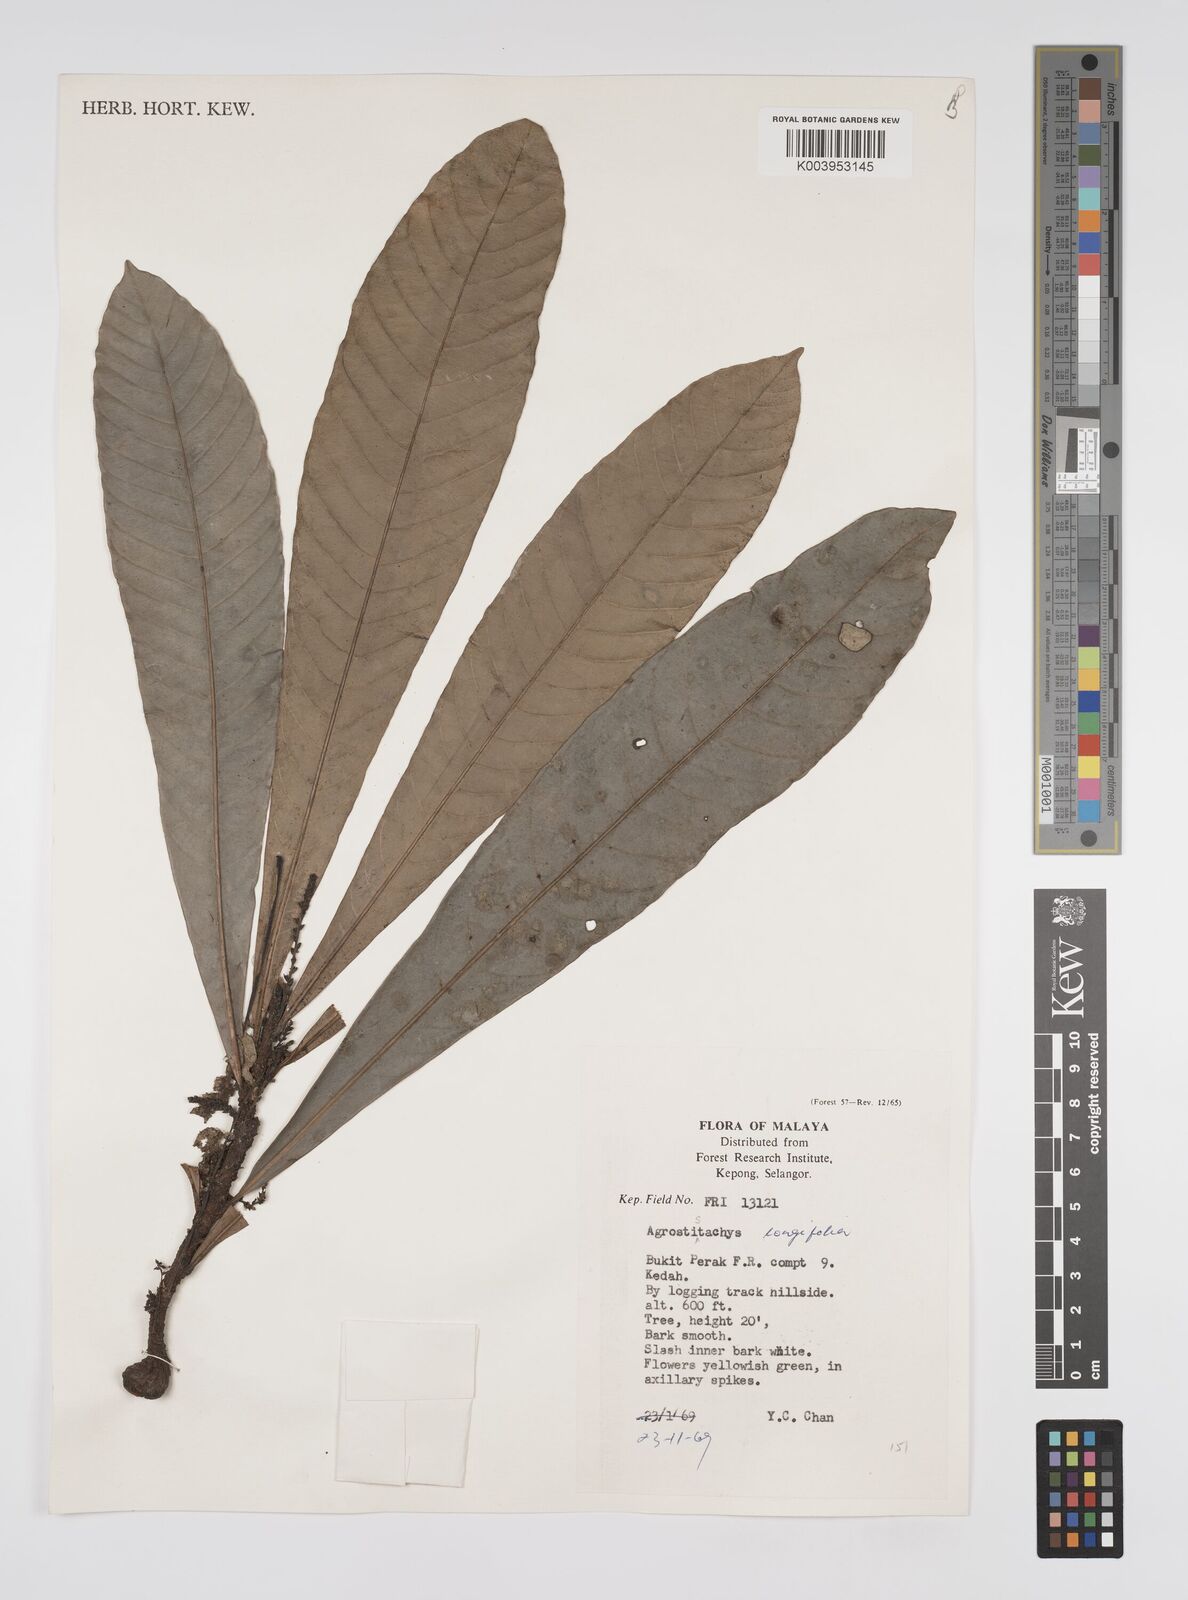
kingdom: Plantae
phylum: Tracheophyta
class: Magnoliopsida
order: Malpighiales
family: Euphorbiaceae
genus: Agrostistachys
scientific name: Agrostistachys borneensis
